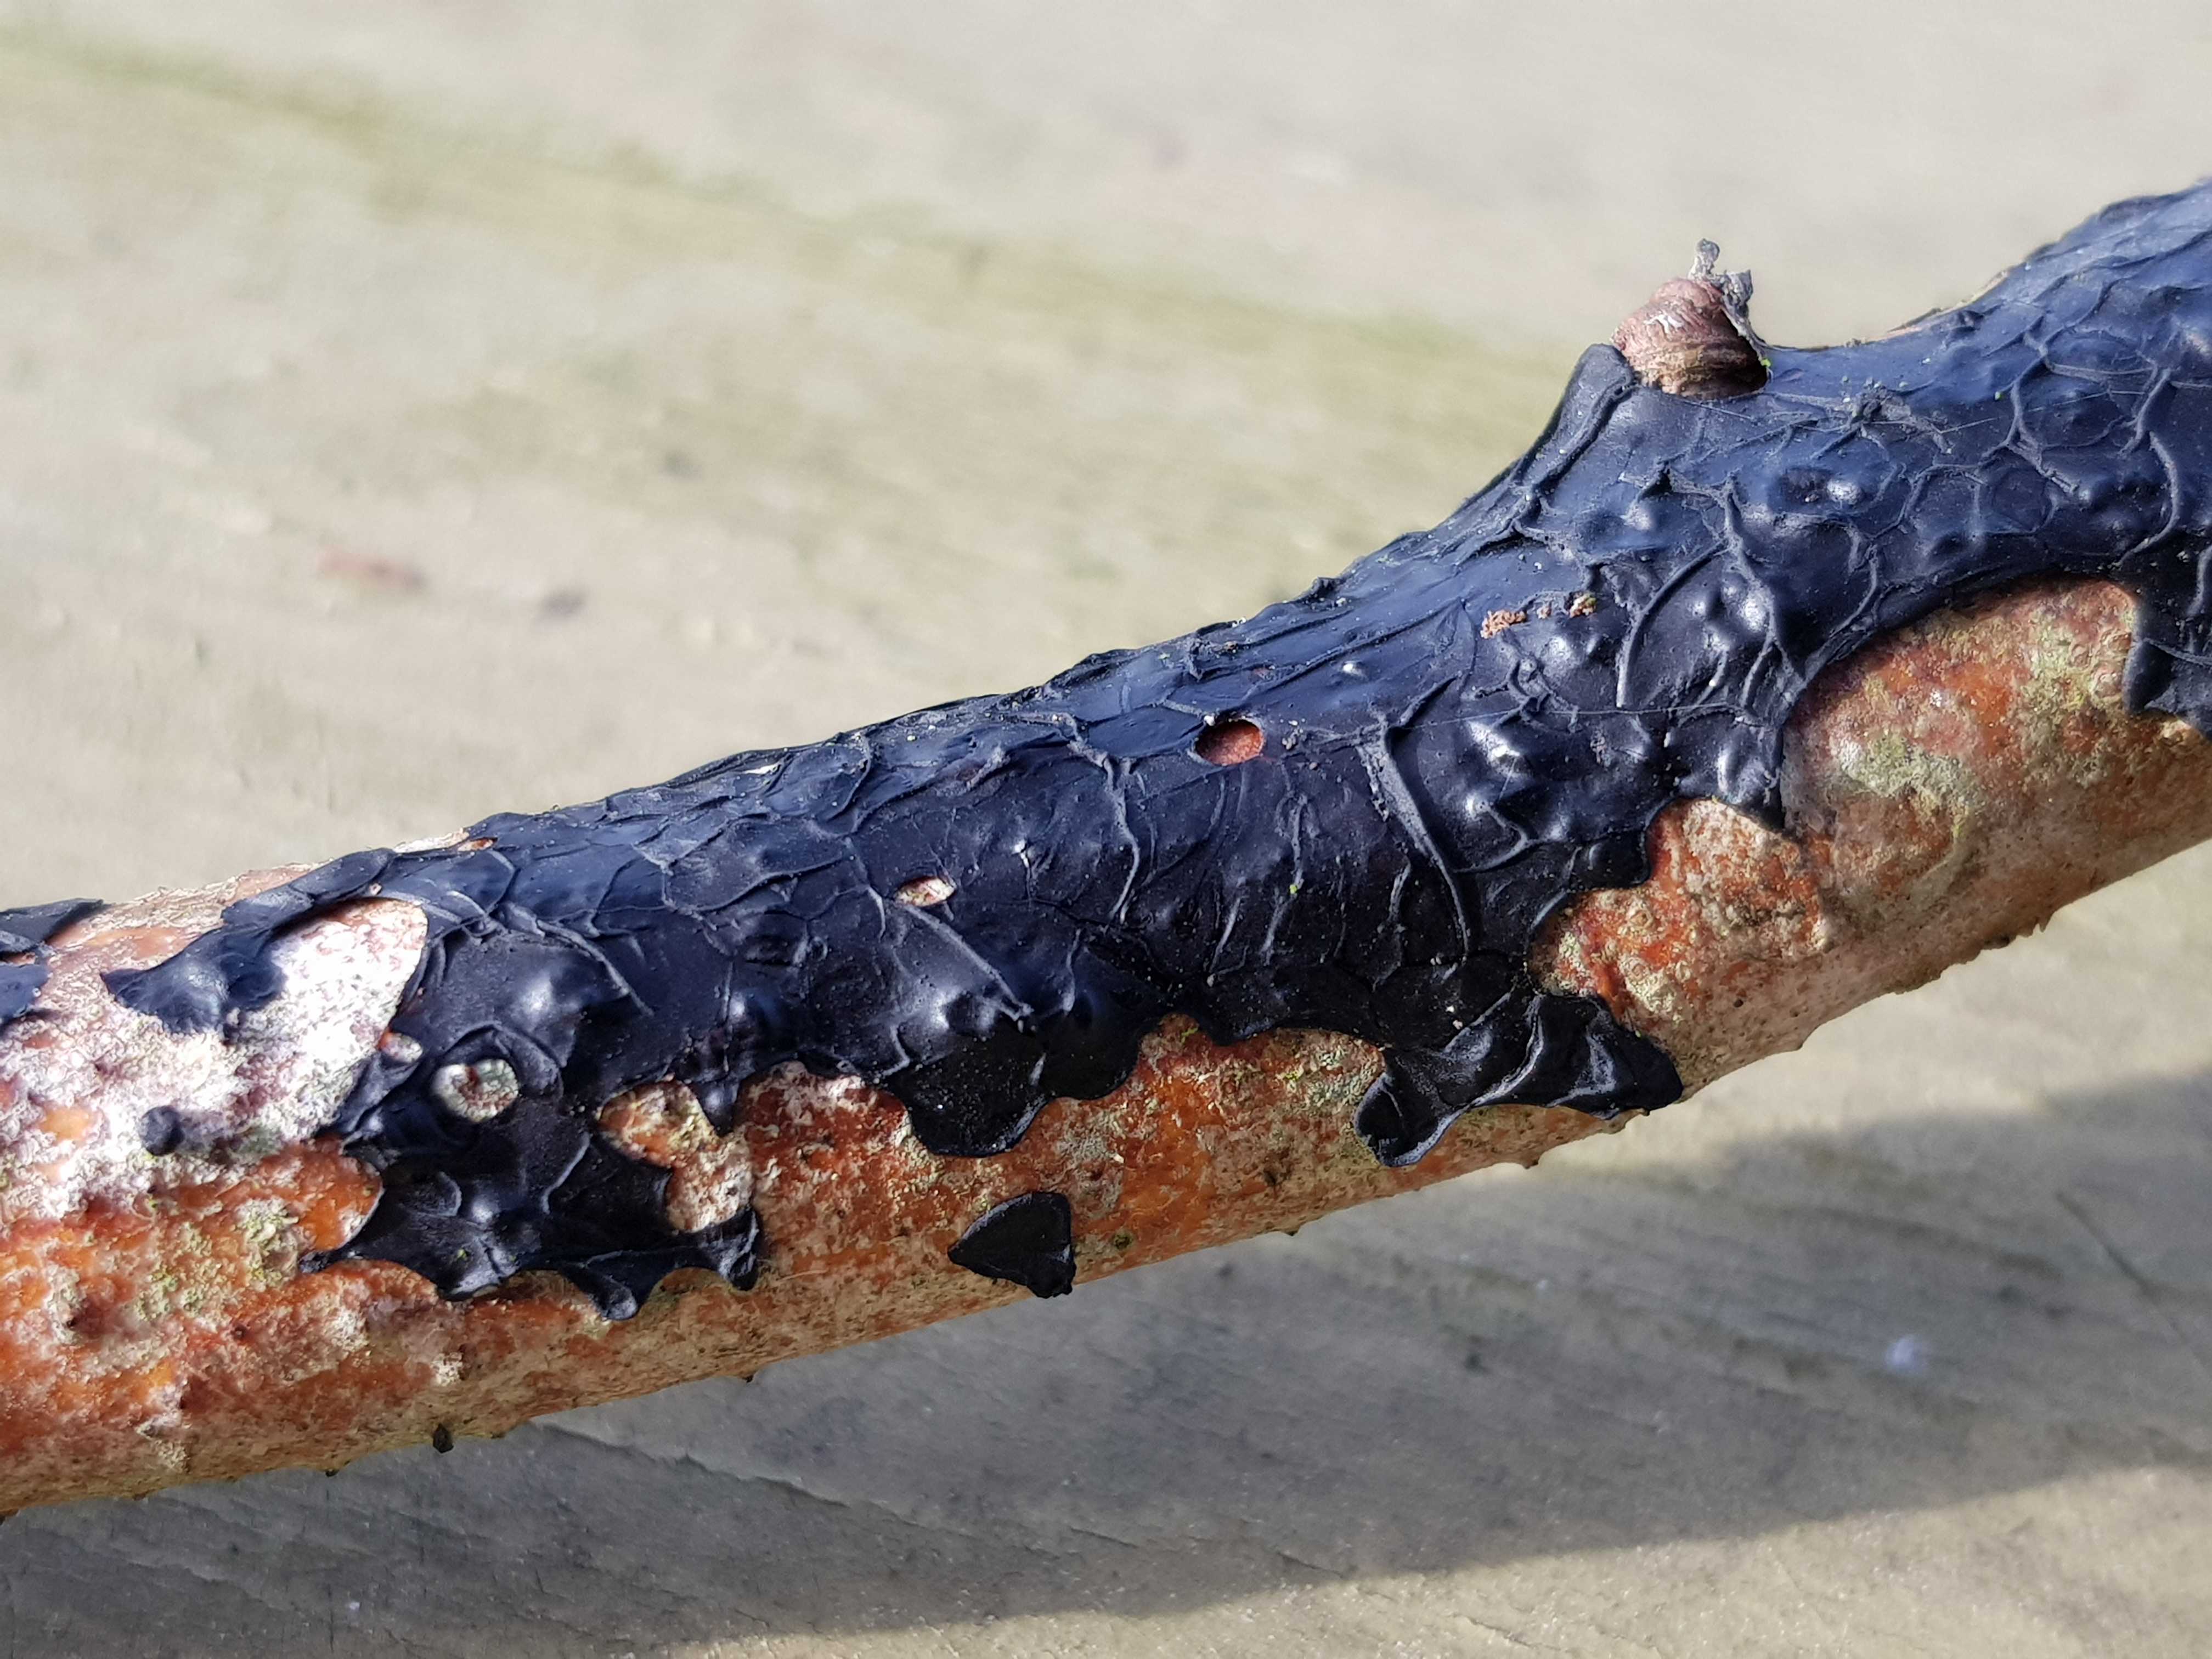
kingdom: Fungi
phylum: Basidiomycota
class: Agaricomycetes
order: Auriculariales
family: Auriculariaceae
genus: Exidia
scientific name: Exidia nigricans
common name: almindelig bævretop
